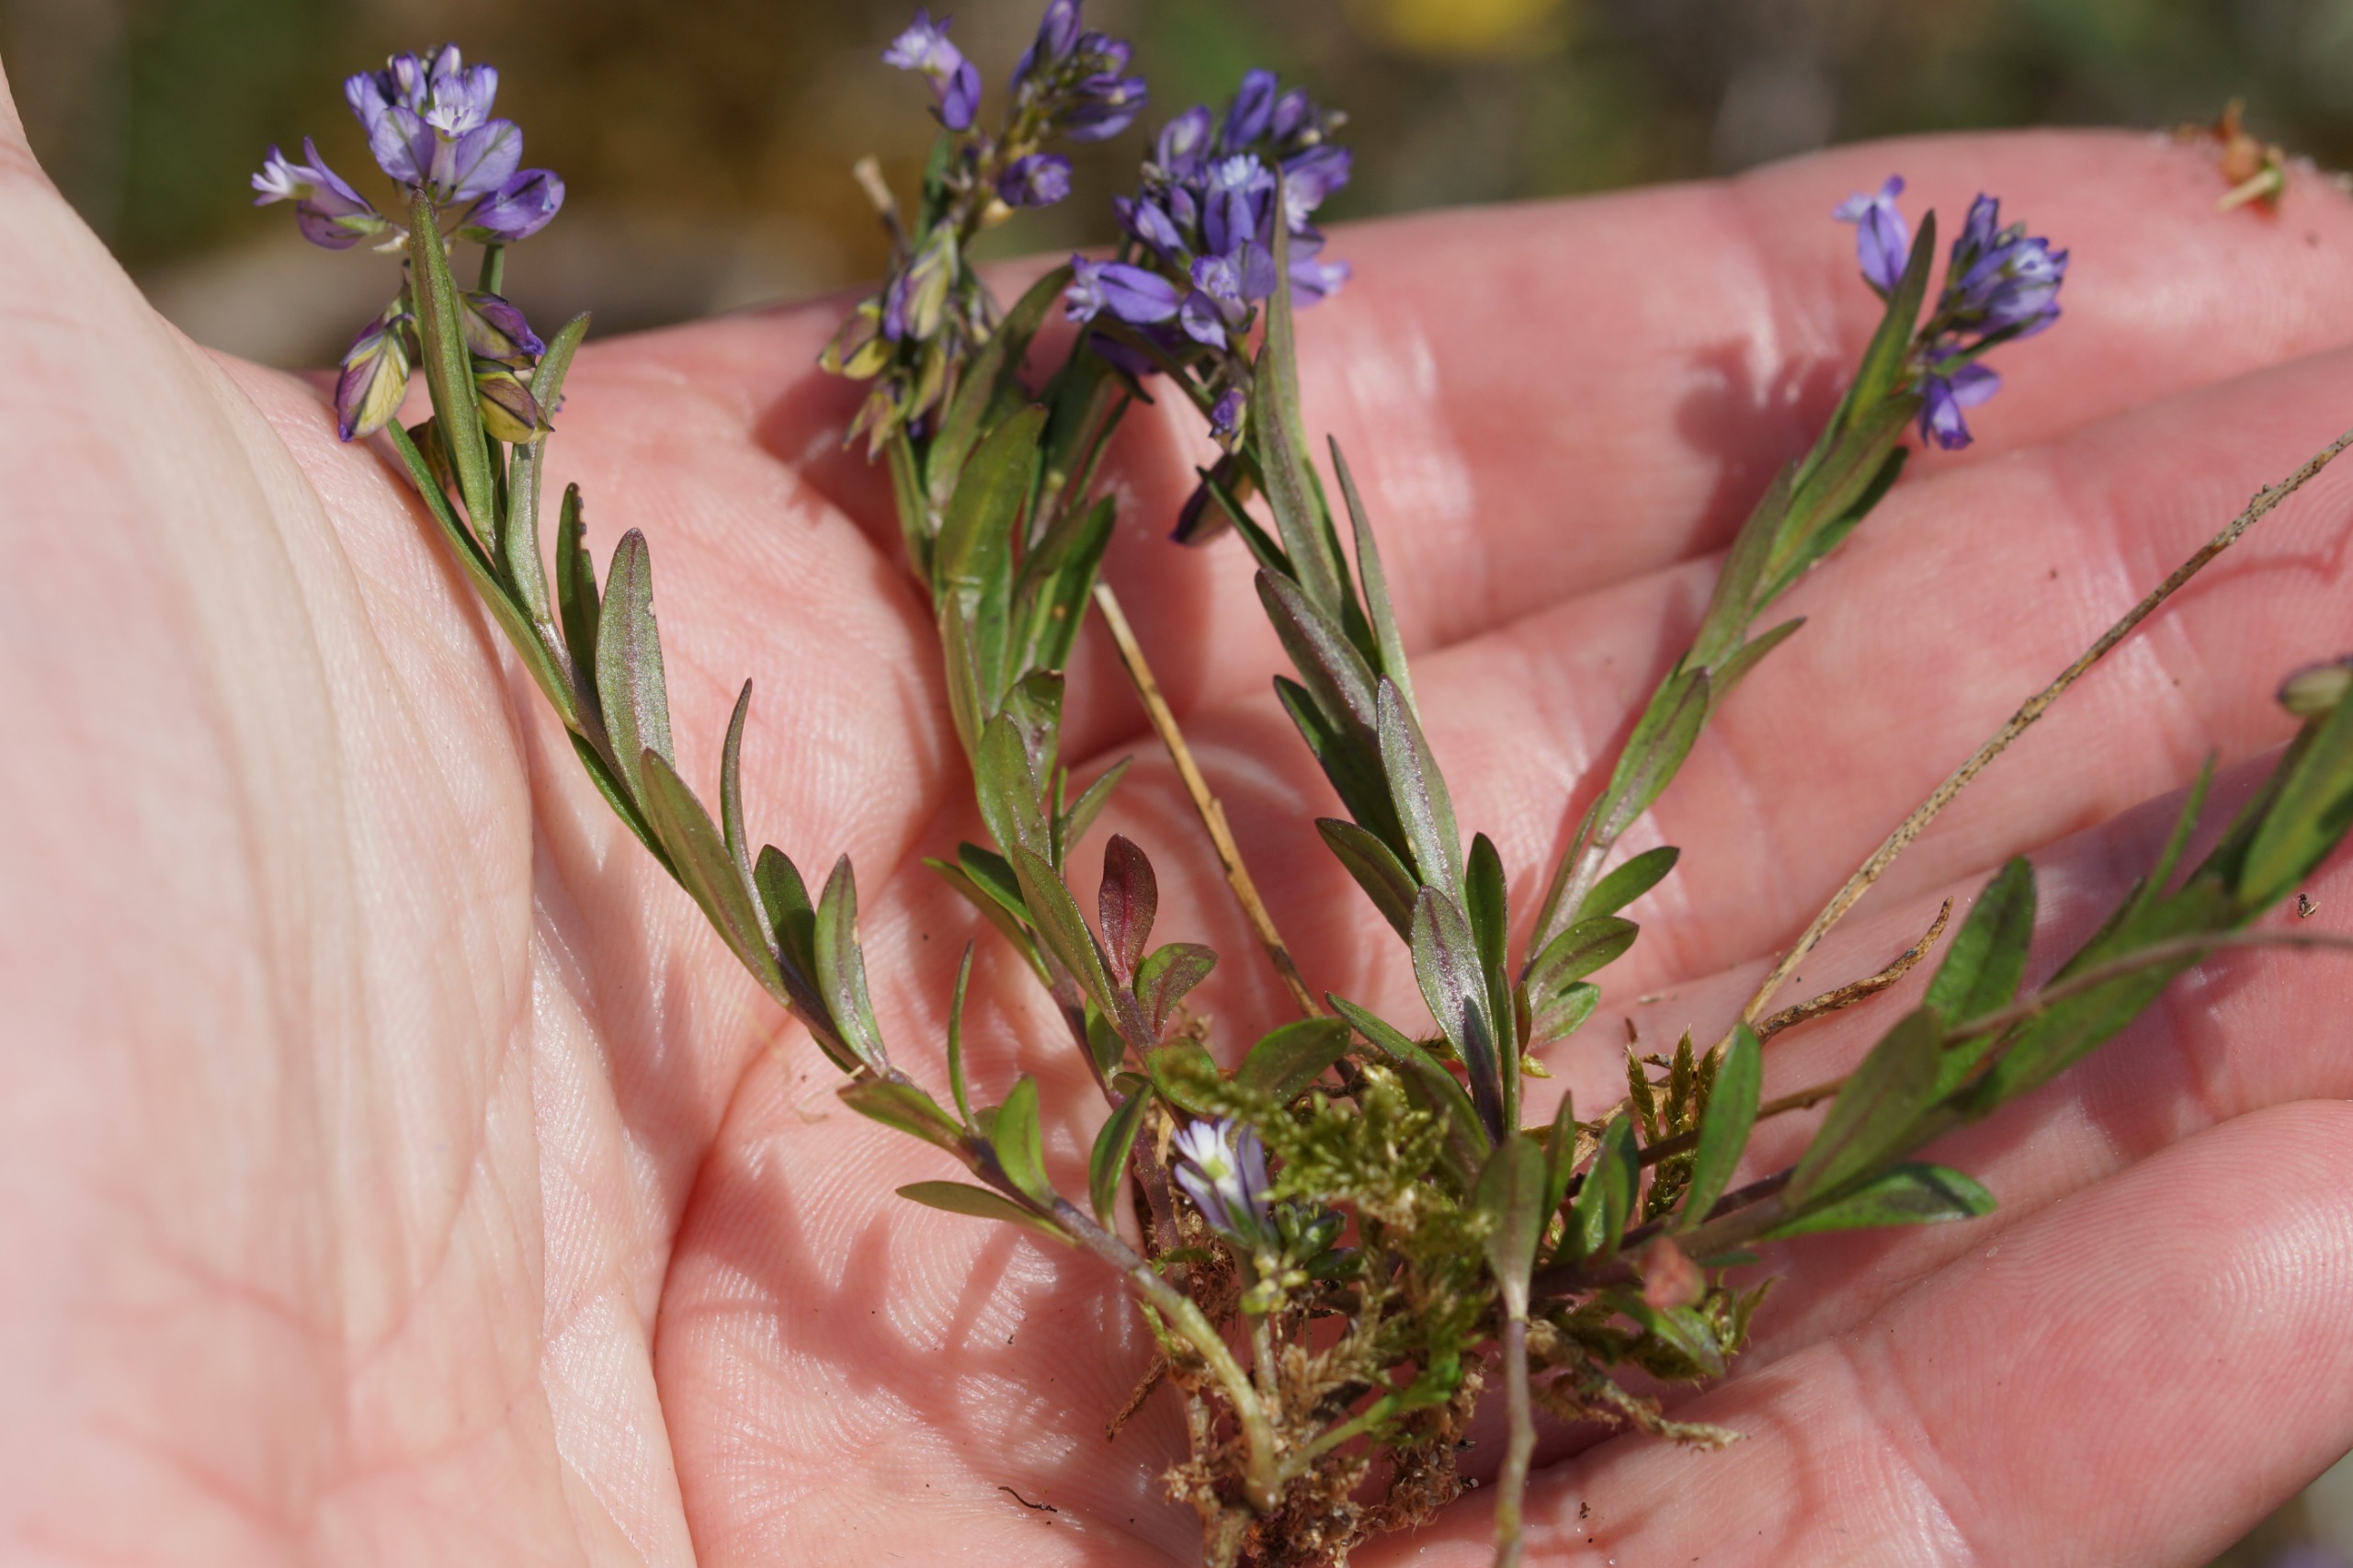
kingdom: Plantae
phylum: Tracheophyta
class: Magnoliopsida
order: Fabales
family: Polygalaceae
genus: Polygala
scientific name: Polygala vulgaris
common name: Almindelig mælkeurt
